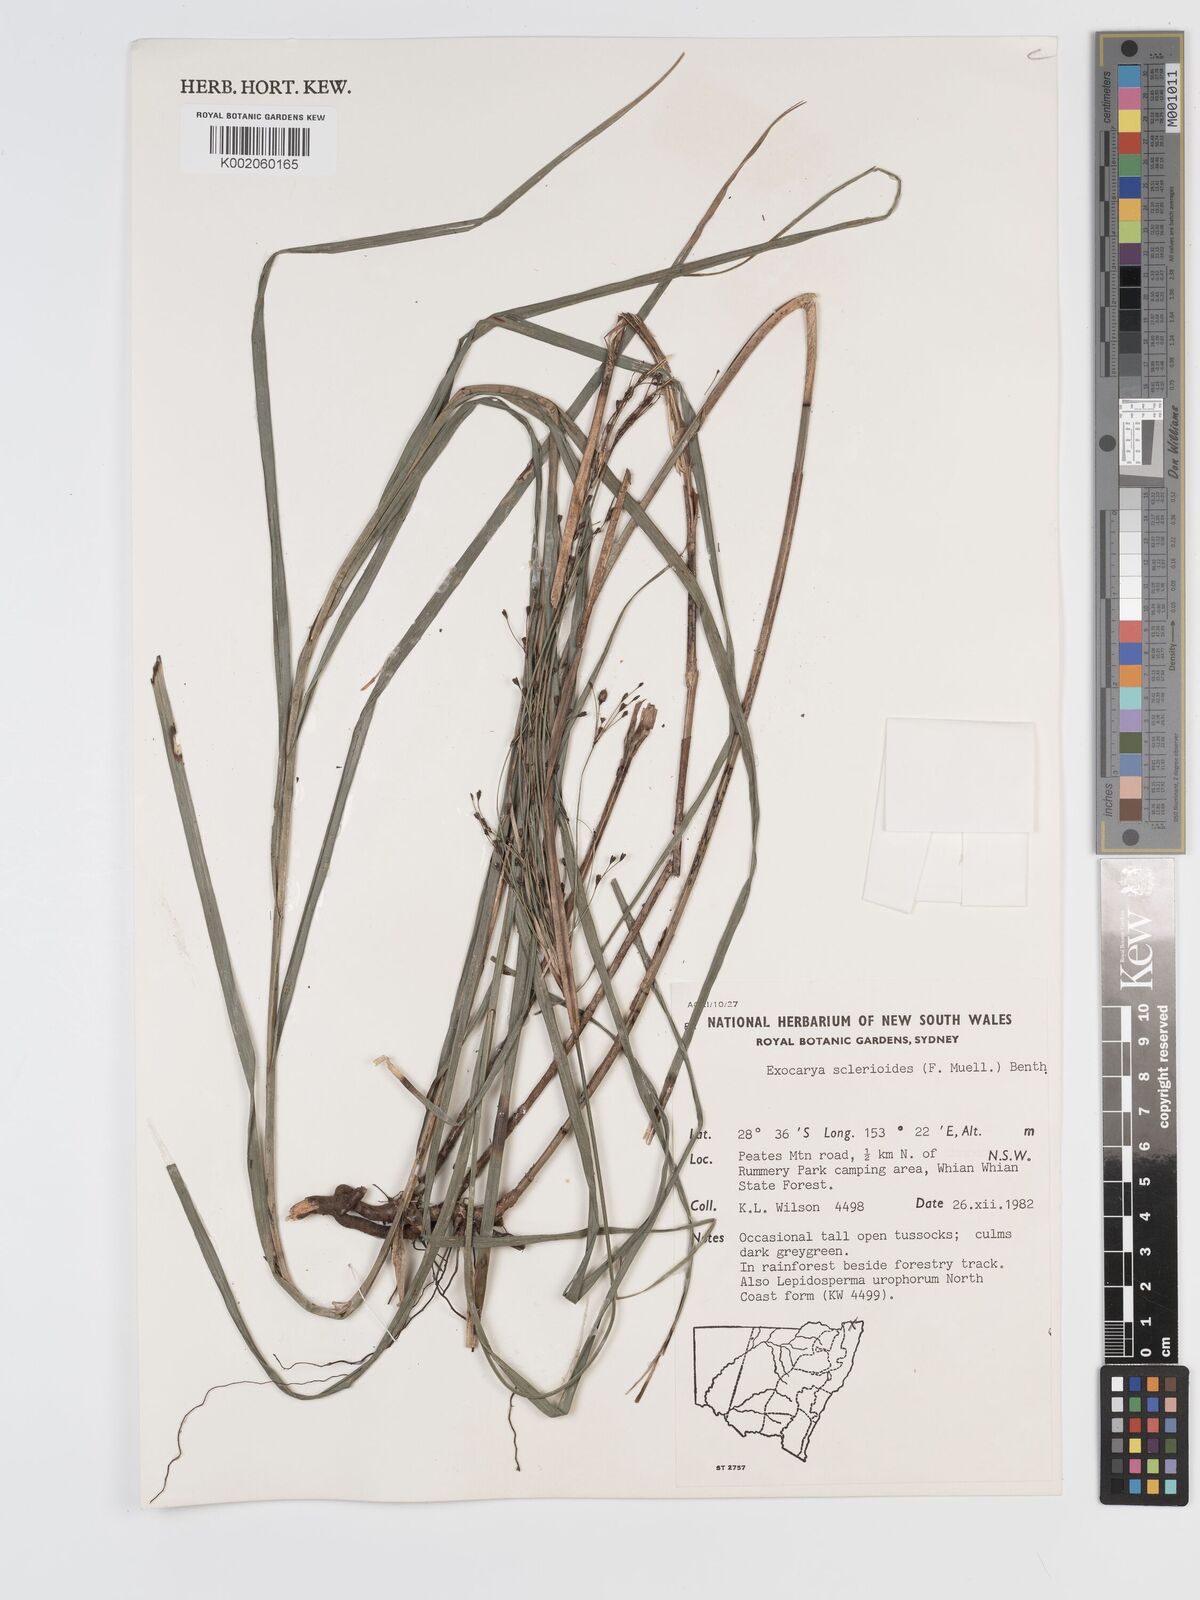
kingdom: Plantae
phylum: Tracheophyta
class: Liliopsida
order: Poales
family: Cyperaceae
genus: Exocarya
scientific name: Exocarya sclerioides
